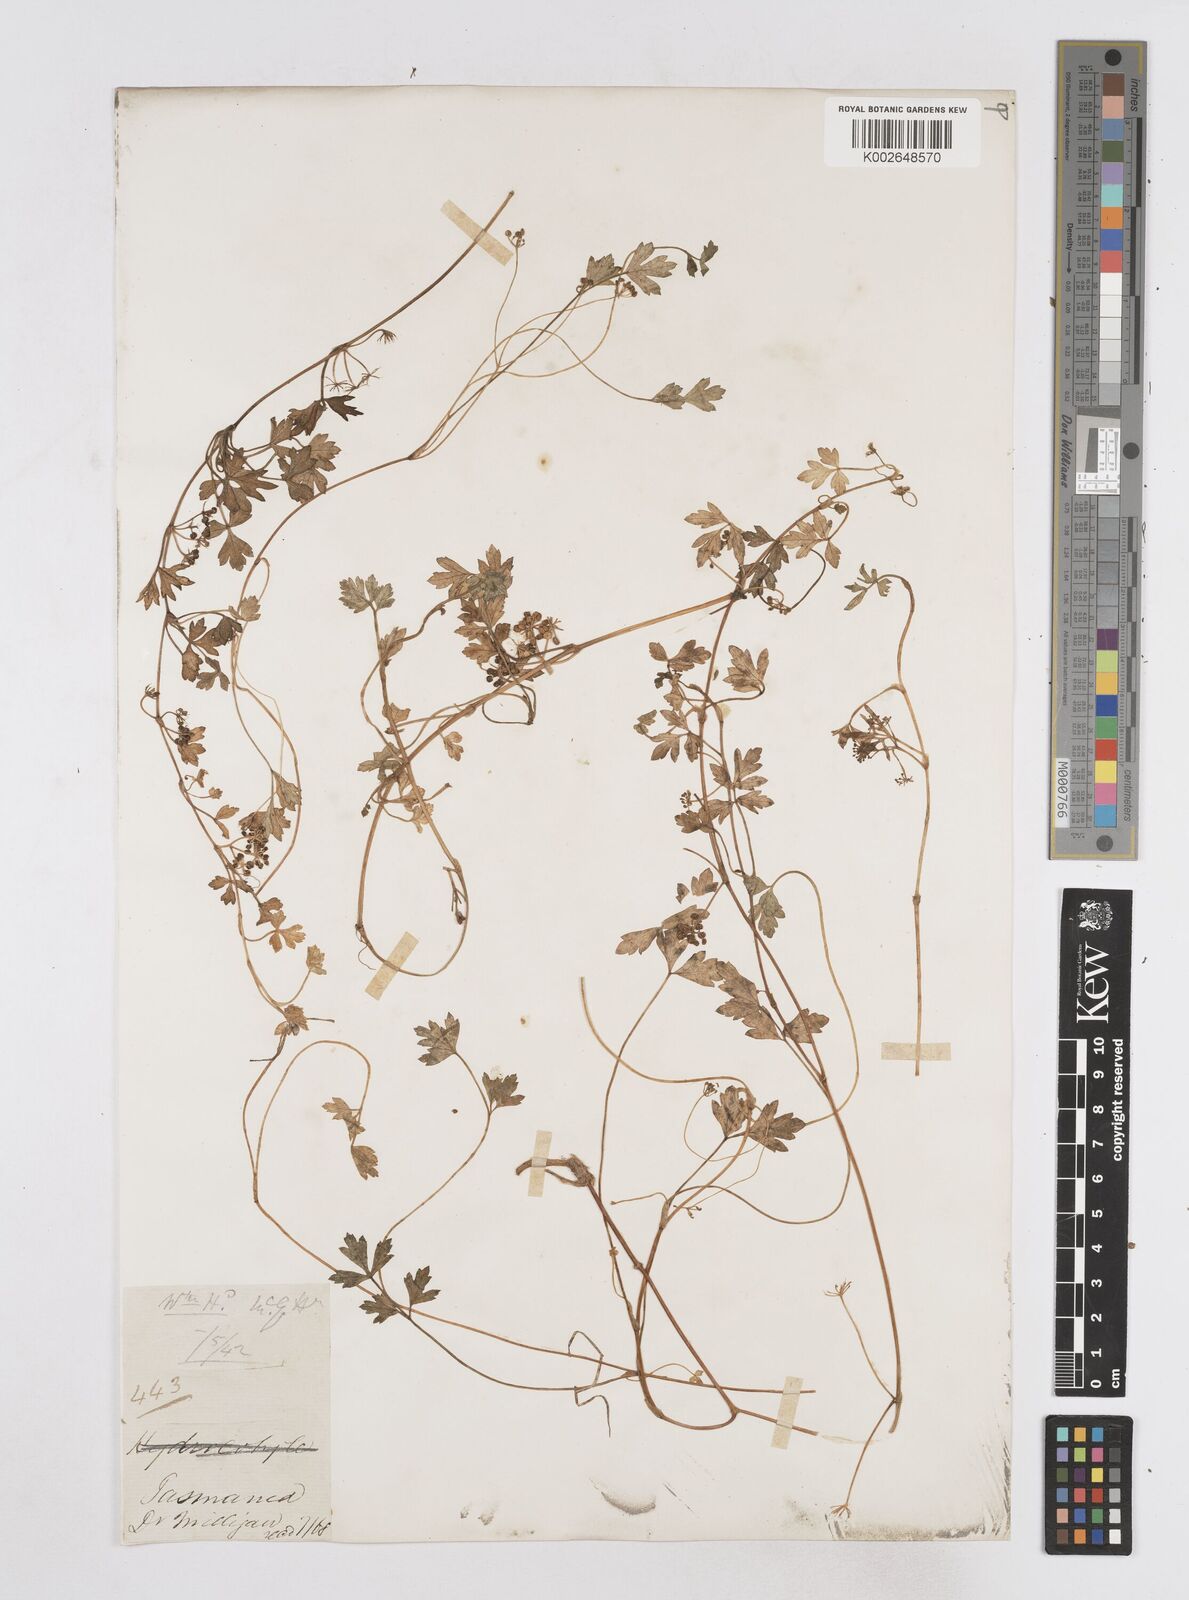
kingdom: Plantae
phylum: Tracheophyta
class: Magnoliopsida
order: Apiales
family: Apiaceae
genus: Apium
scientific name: Apium prostratum
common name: Prostrate marshwort
